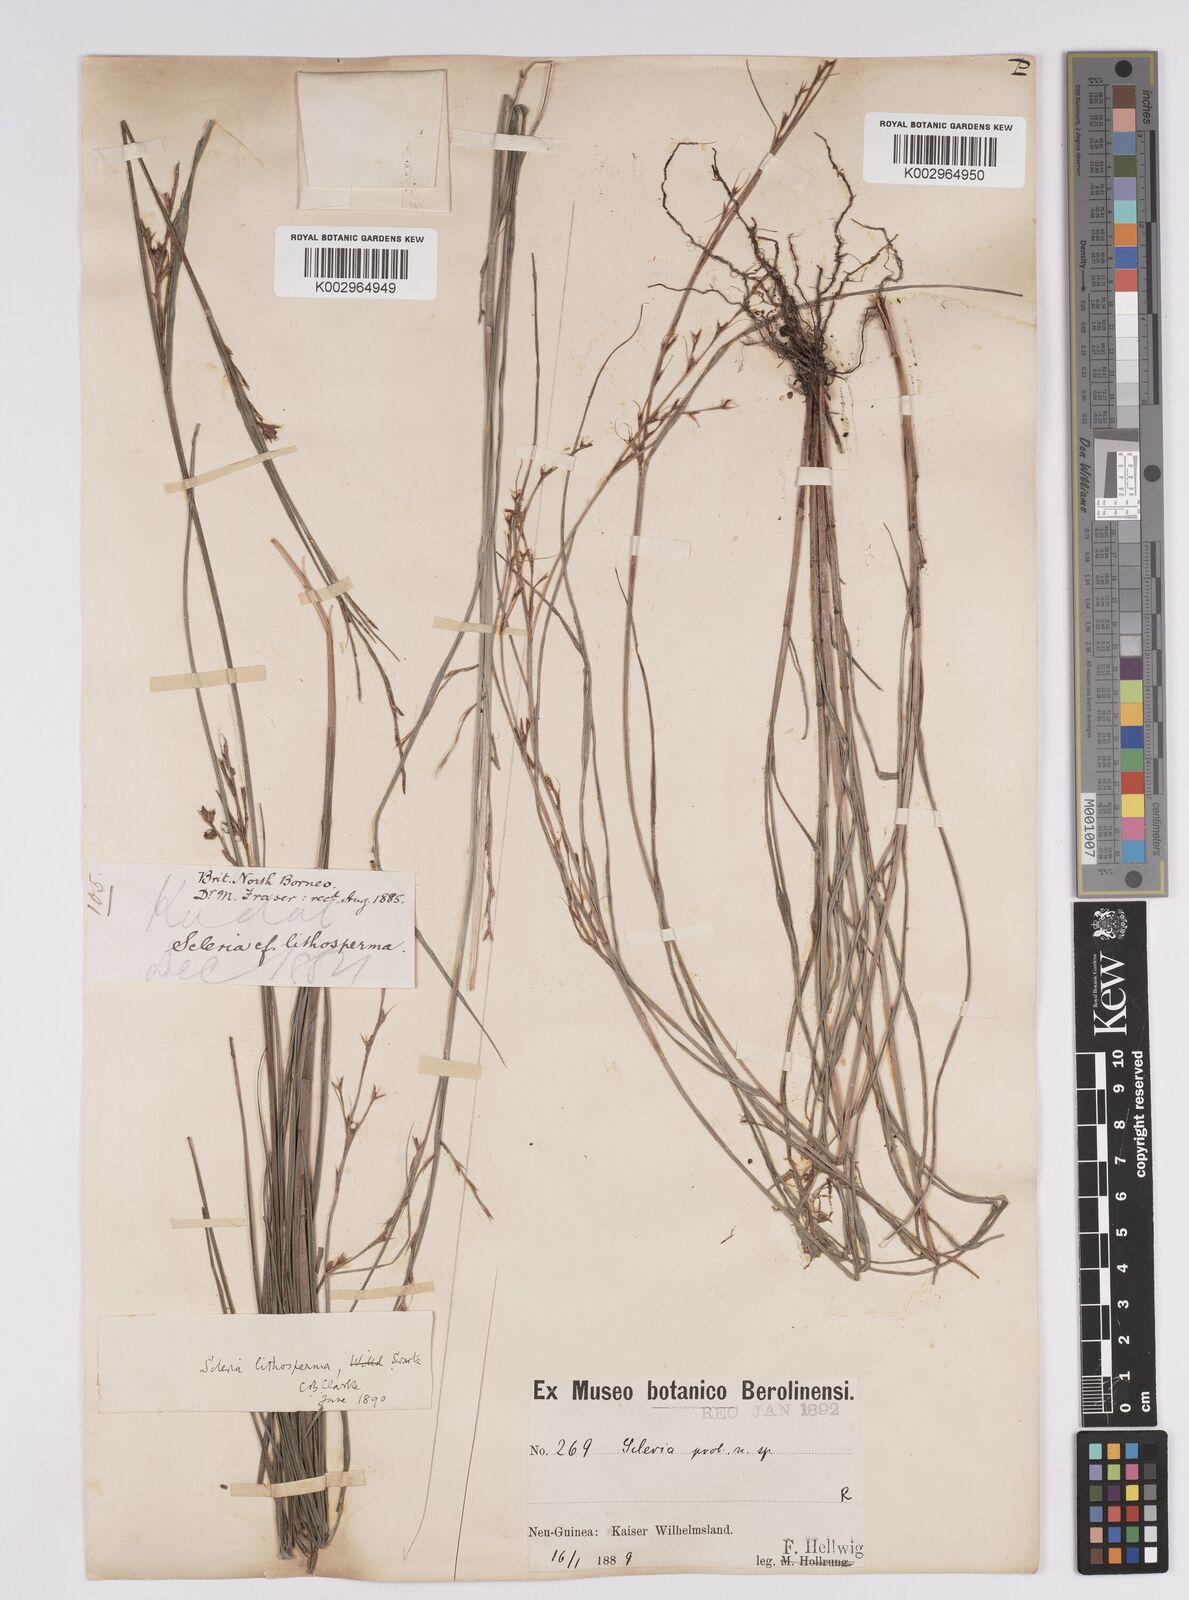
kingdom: Plantae
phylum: Tracheophyta
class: Liliopsida
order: Poales
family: Cyperaceae
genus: Scleria
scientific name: Scleria lithosperma
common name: Florida keys nut-rush
